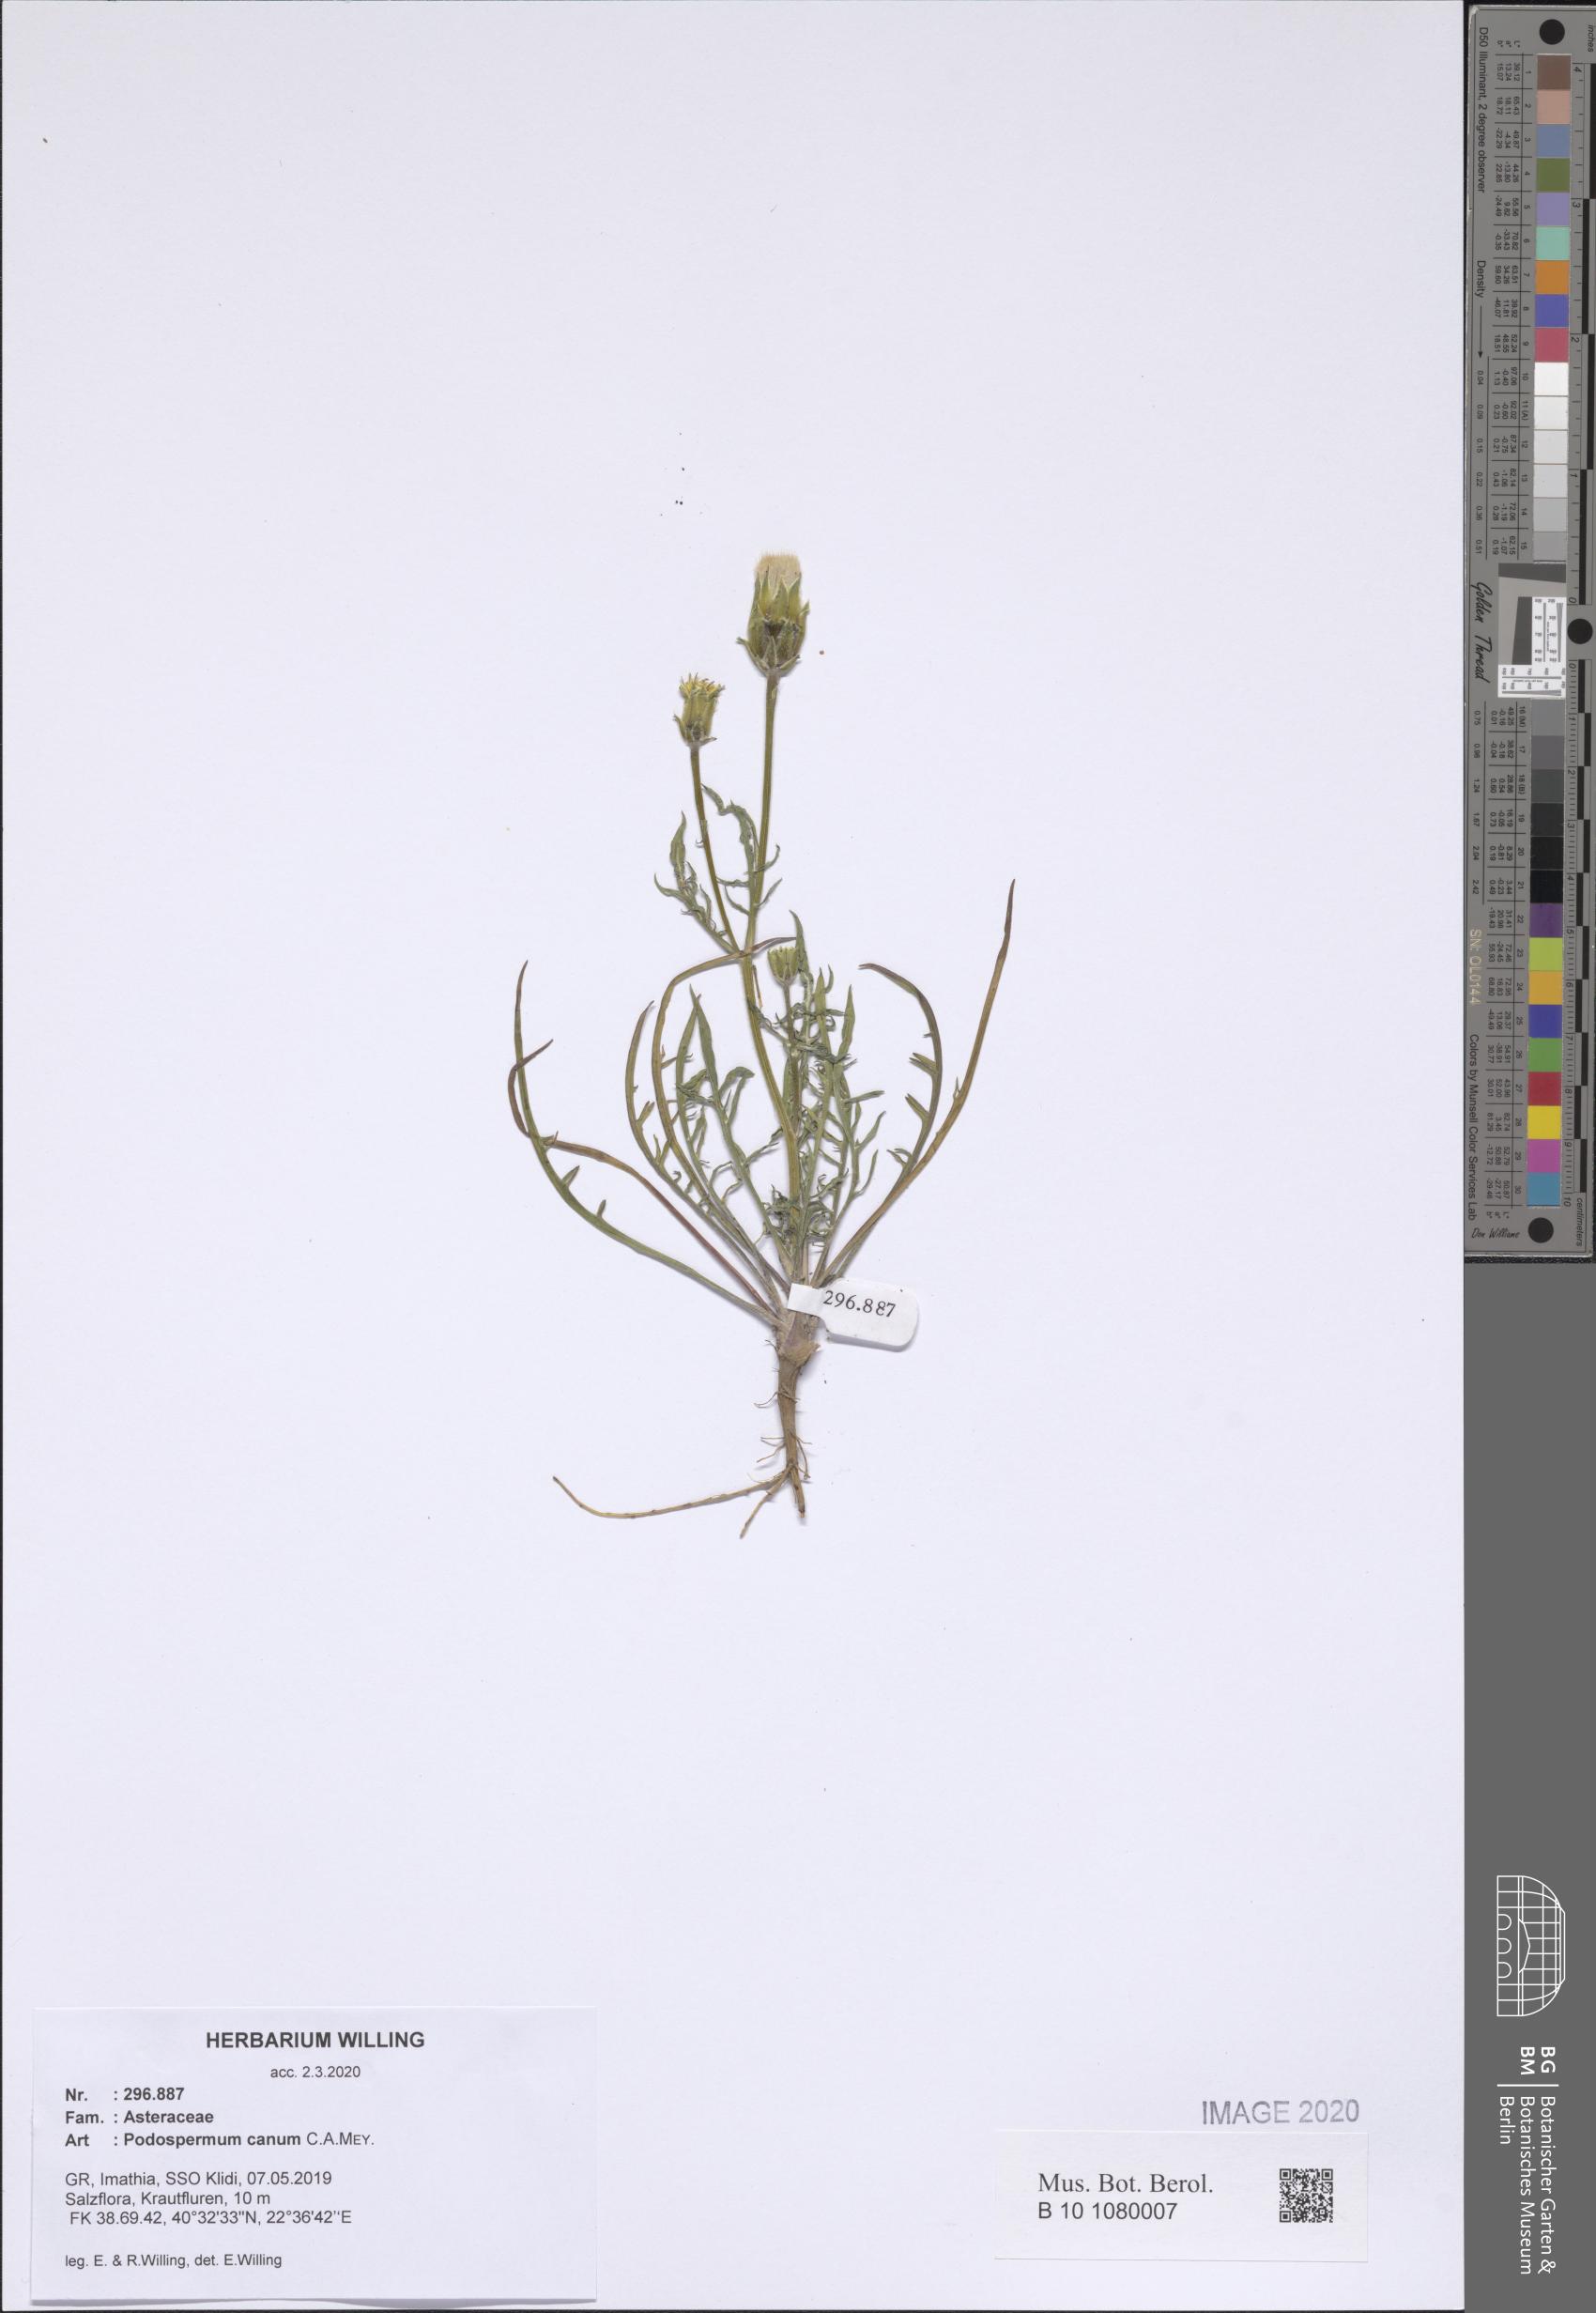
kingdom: Plantae
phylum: Tracheophyta
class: Magnoliopsida
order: Asterales
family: Asteraceae
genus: Scorzonera
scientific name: Scorzonera cana
